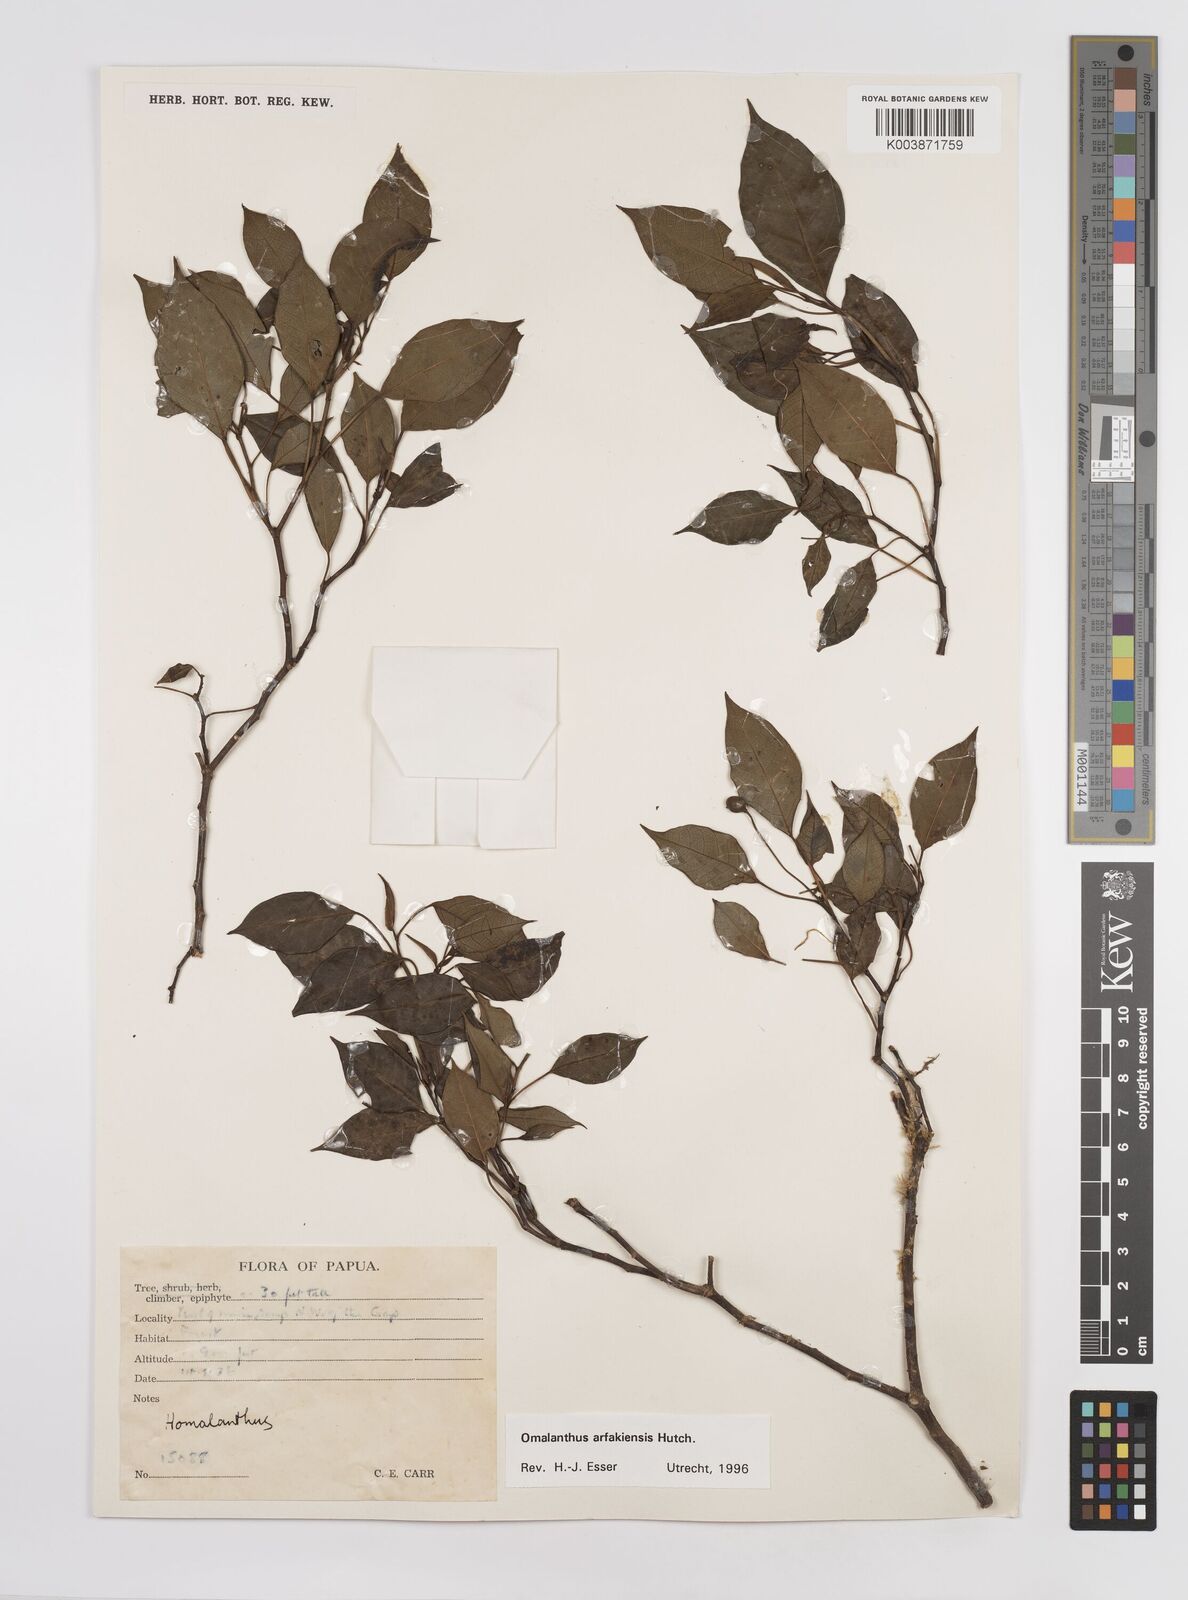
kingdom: Plantae
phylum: Tracheophyta
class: Magnoliopsida
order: Malpighiales
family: Euphorbiaceae
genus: Homalanthus
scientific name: Homalanthus arfakiensis
